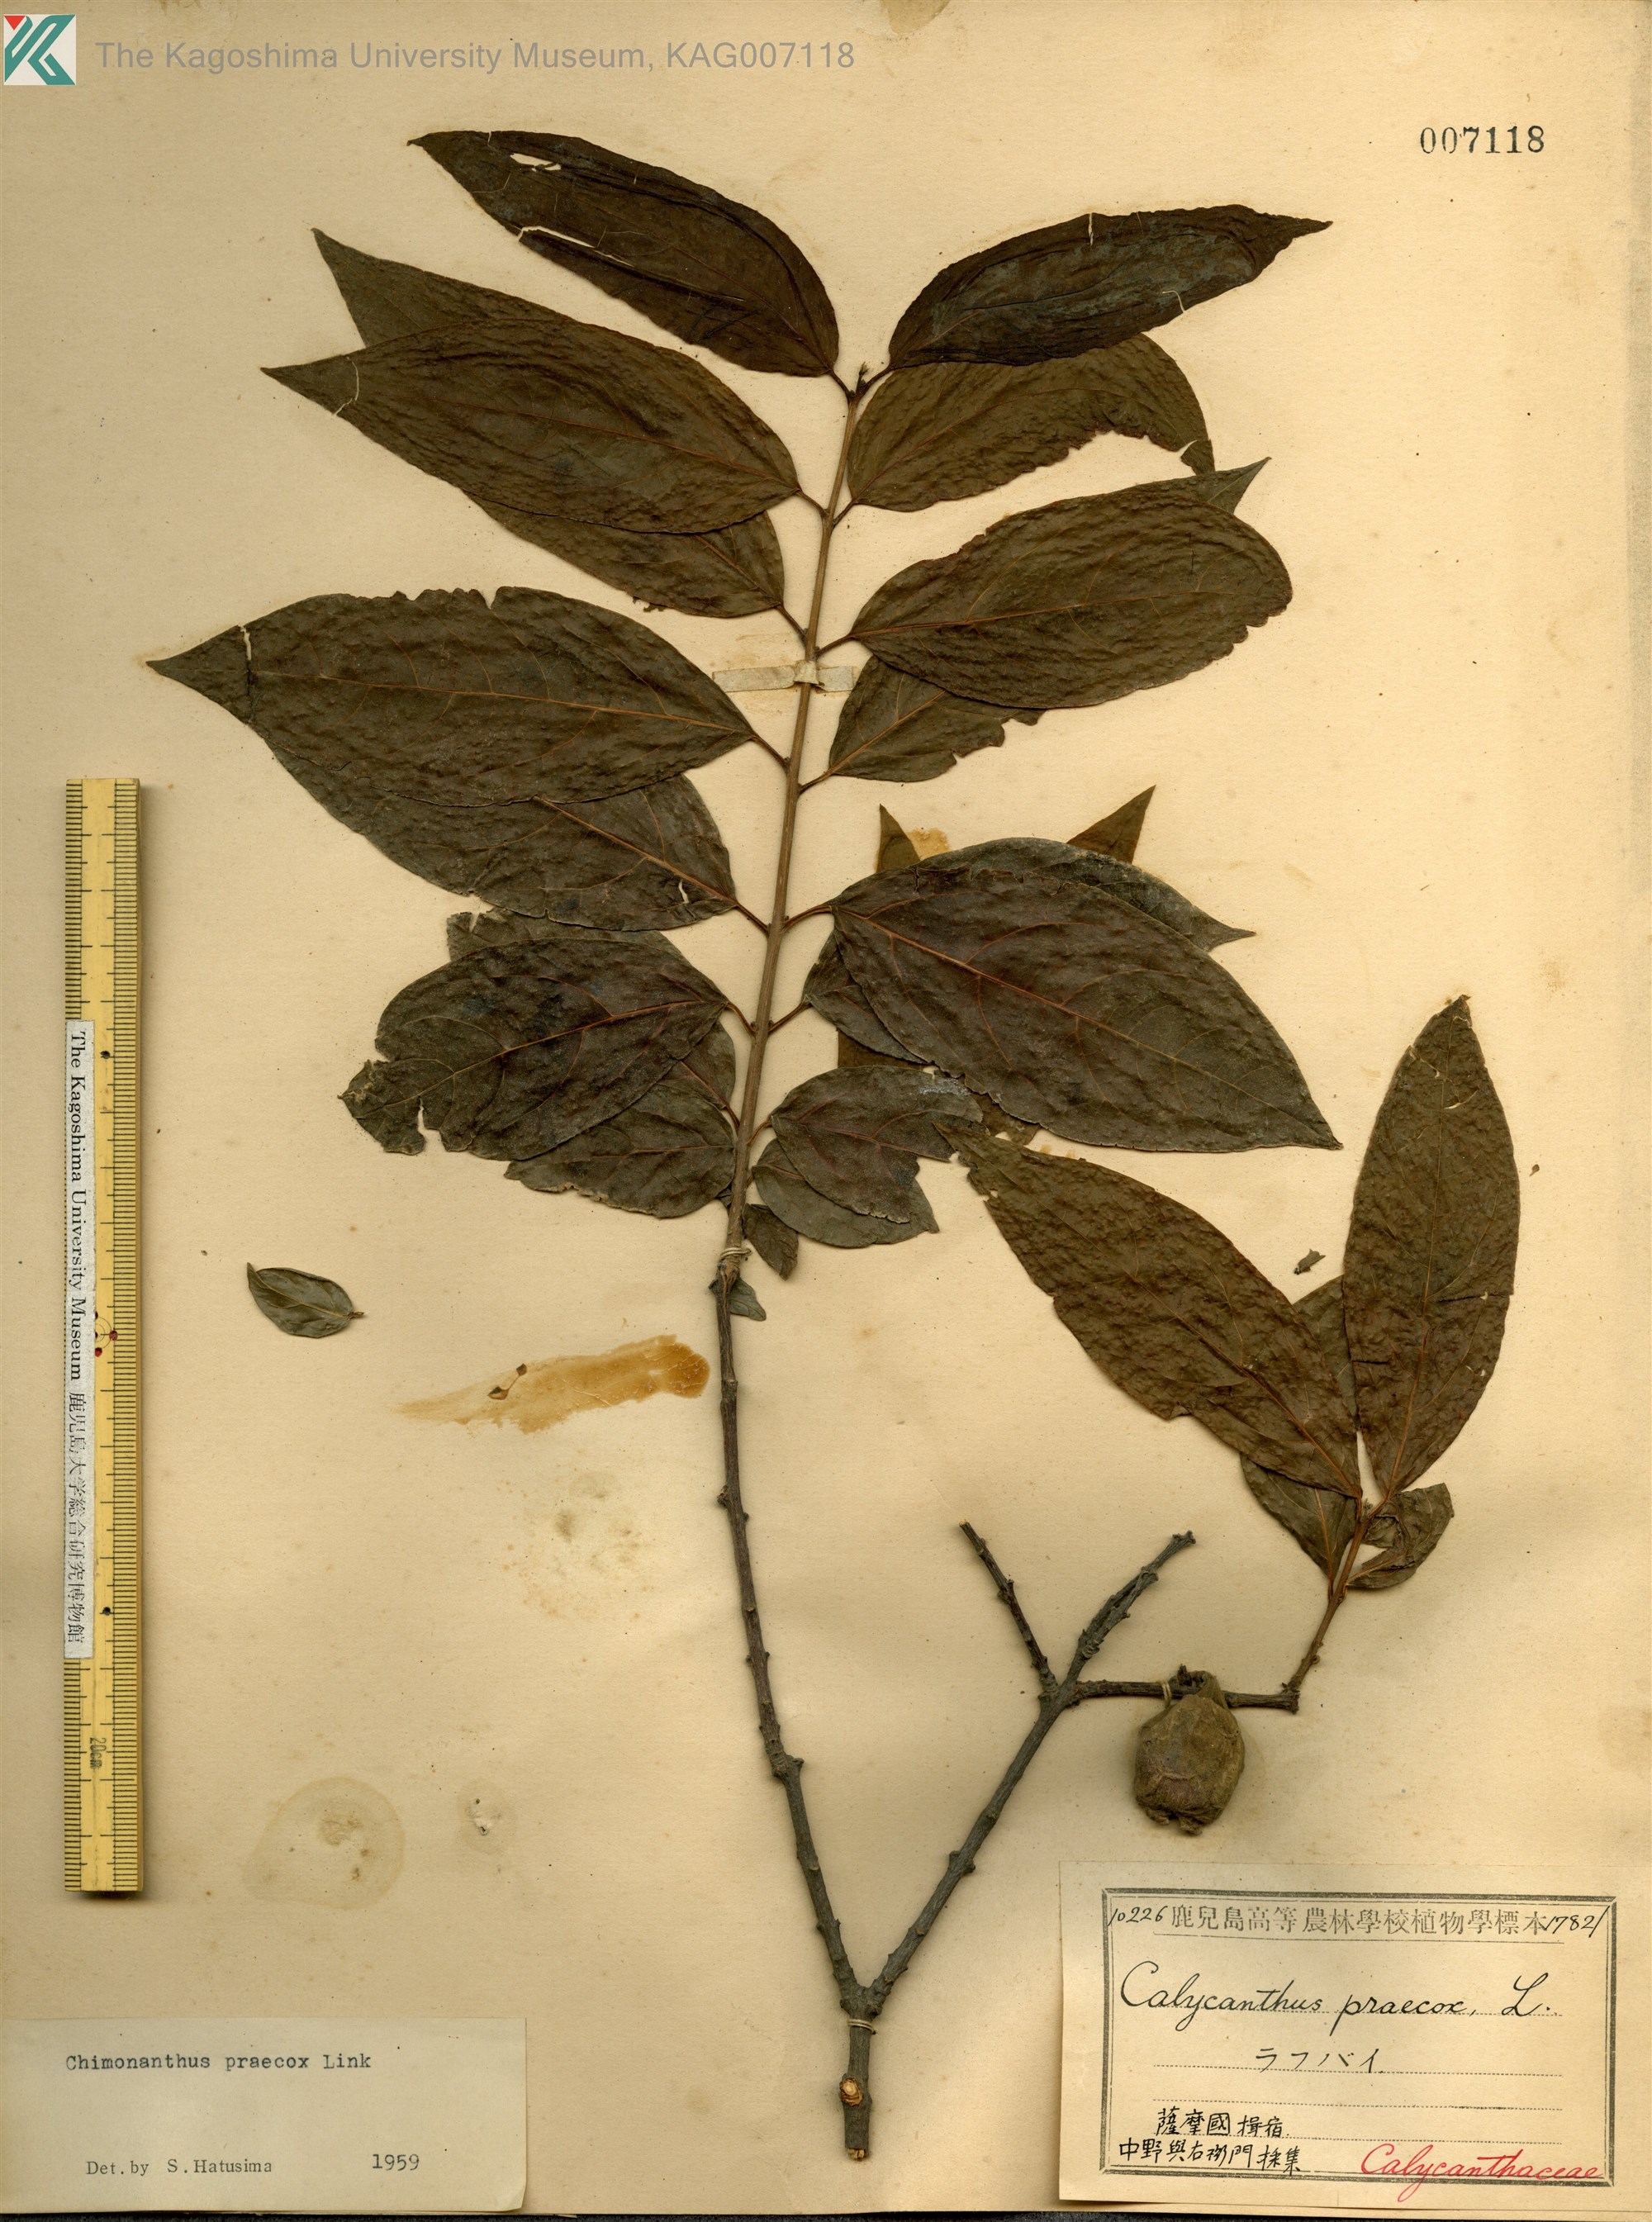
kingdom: Plantae
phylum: Tracheophyta
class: Magnoliopsida
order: Laurales
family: Calycanthaceae
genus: Chimonanthus
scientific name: Chimonanthus praecox
